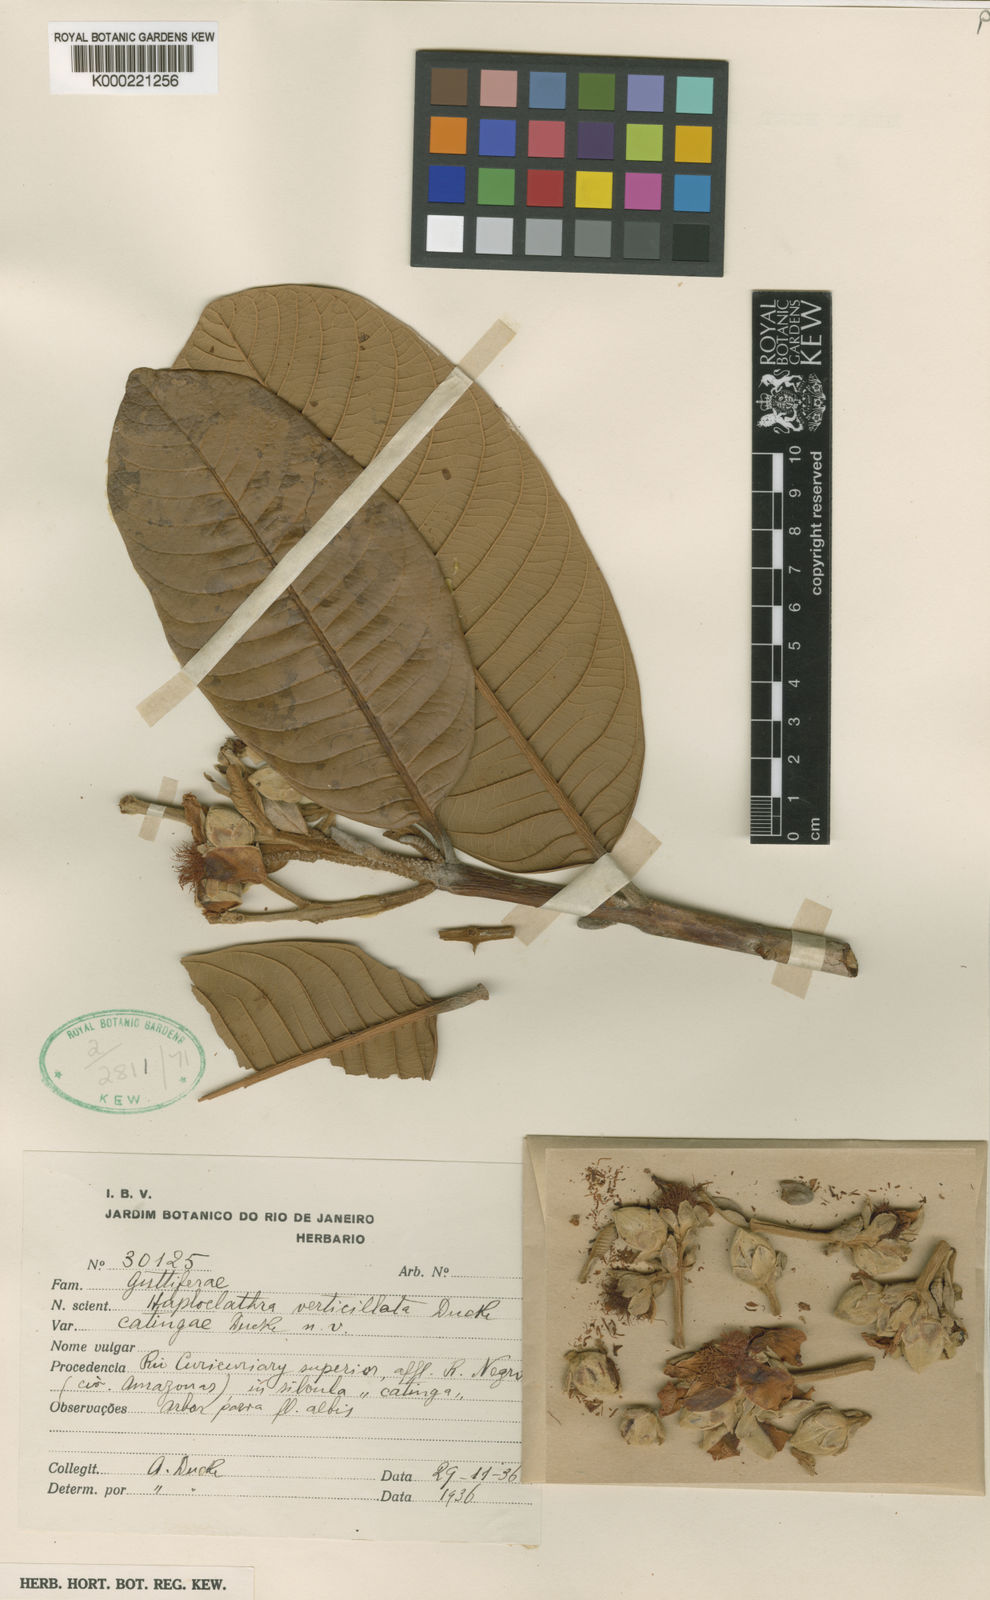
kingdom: Plantae
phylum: Tracheophyta
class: Magnoliopsida
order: Malpighiales
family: Calophyllaceae
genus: Haploclathra
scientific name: Haploclathra
